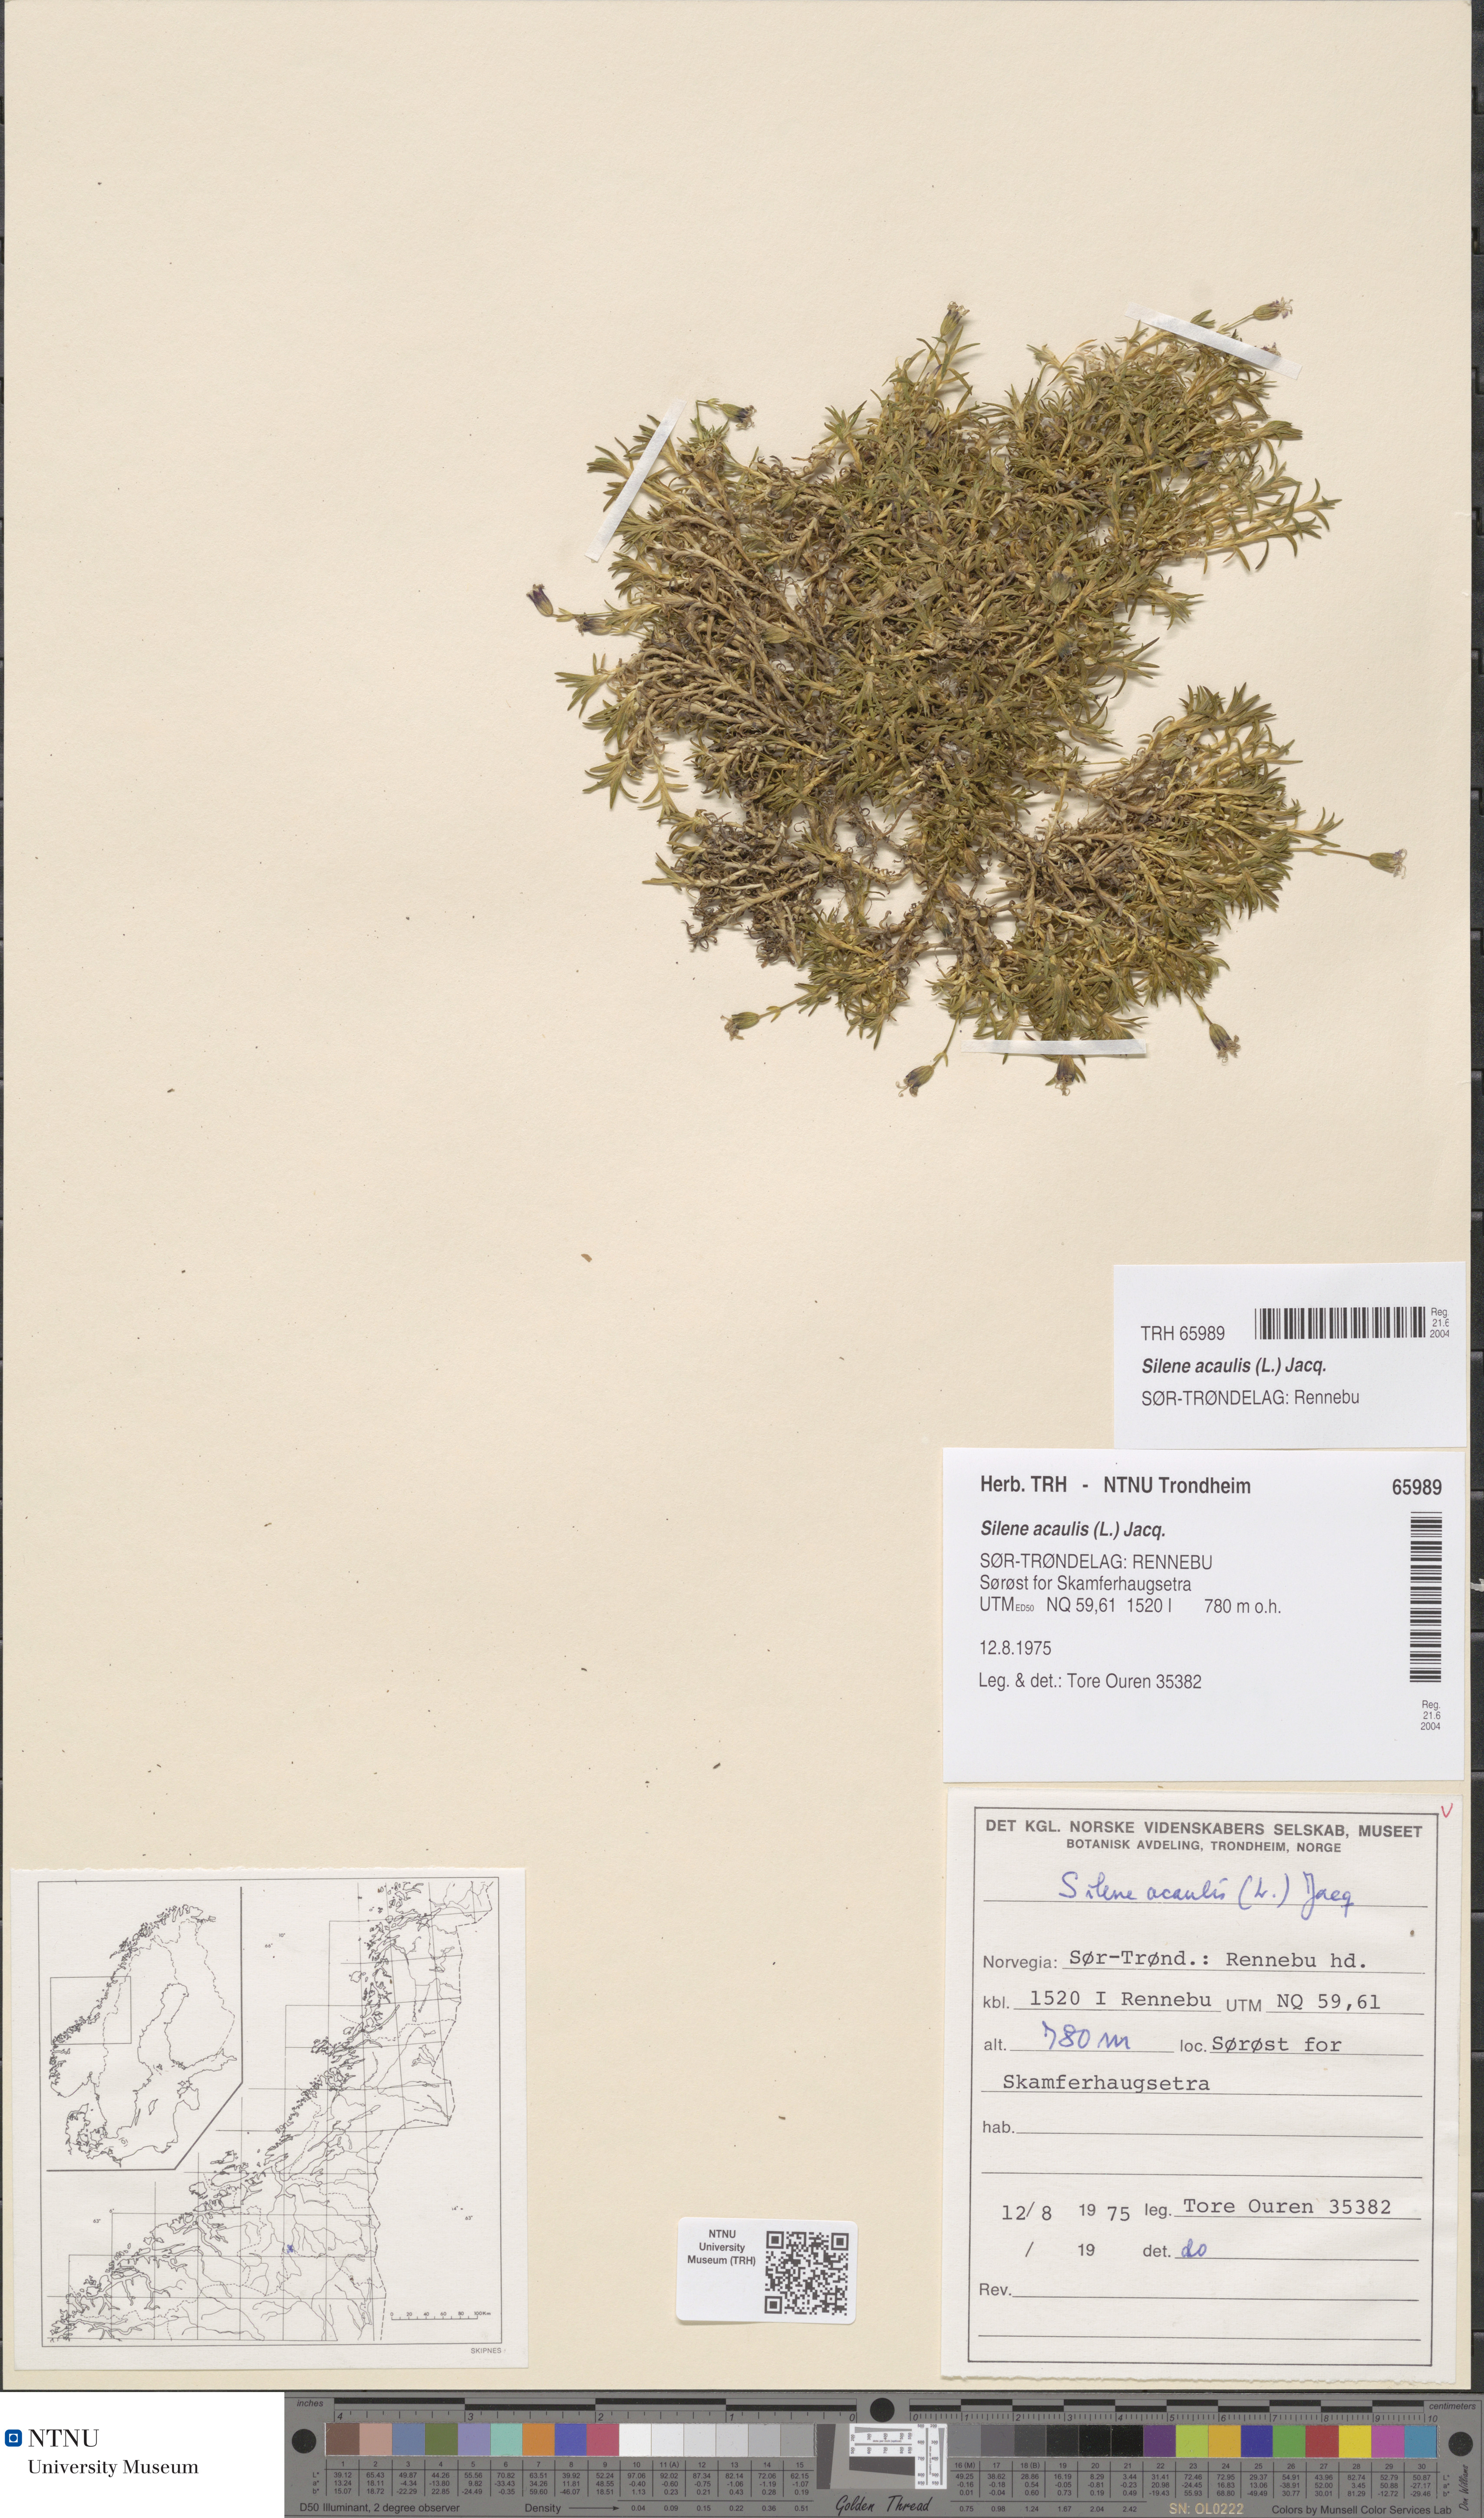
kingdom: Plantae
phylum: Tracheophyta
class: Magnoliopsida
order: Caryophyllales
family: Caryophyllaceae
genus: Silene
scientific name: Silene acaulis
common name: Moss campion
